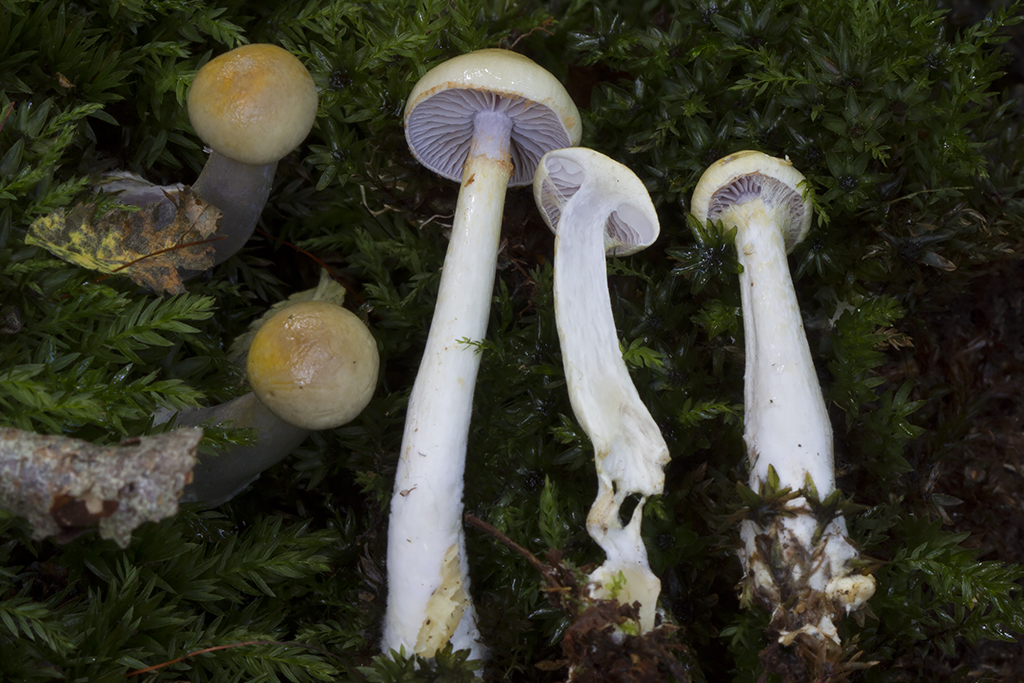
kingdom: Fungi
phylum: Basidiomycota
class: Agaricomycetes
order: Agaricales
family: Cortinariaceae
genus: Cortinarius
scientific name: Cortinarius delibutus
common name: gul slørhat
